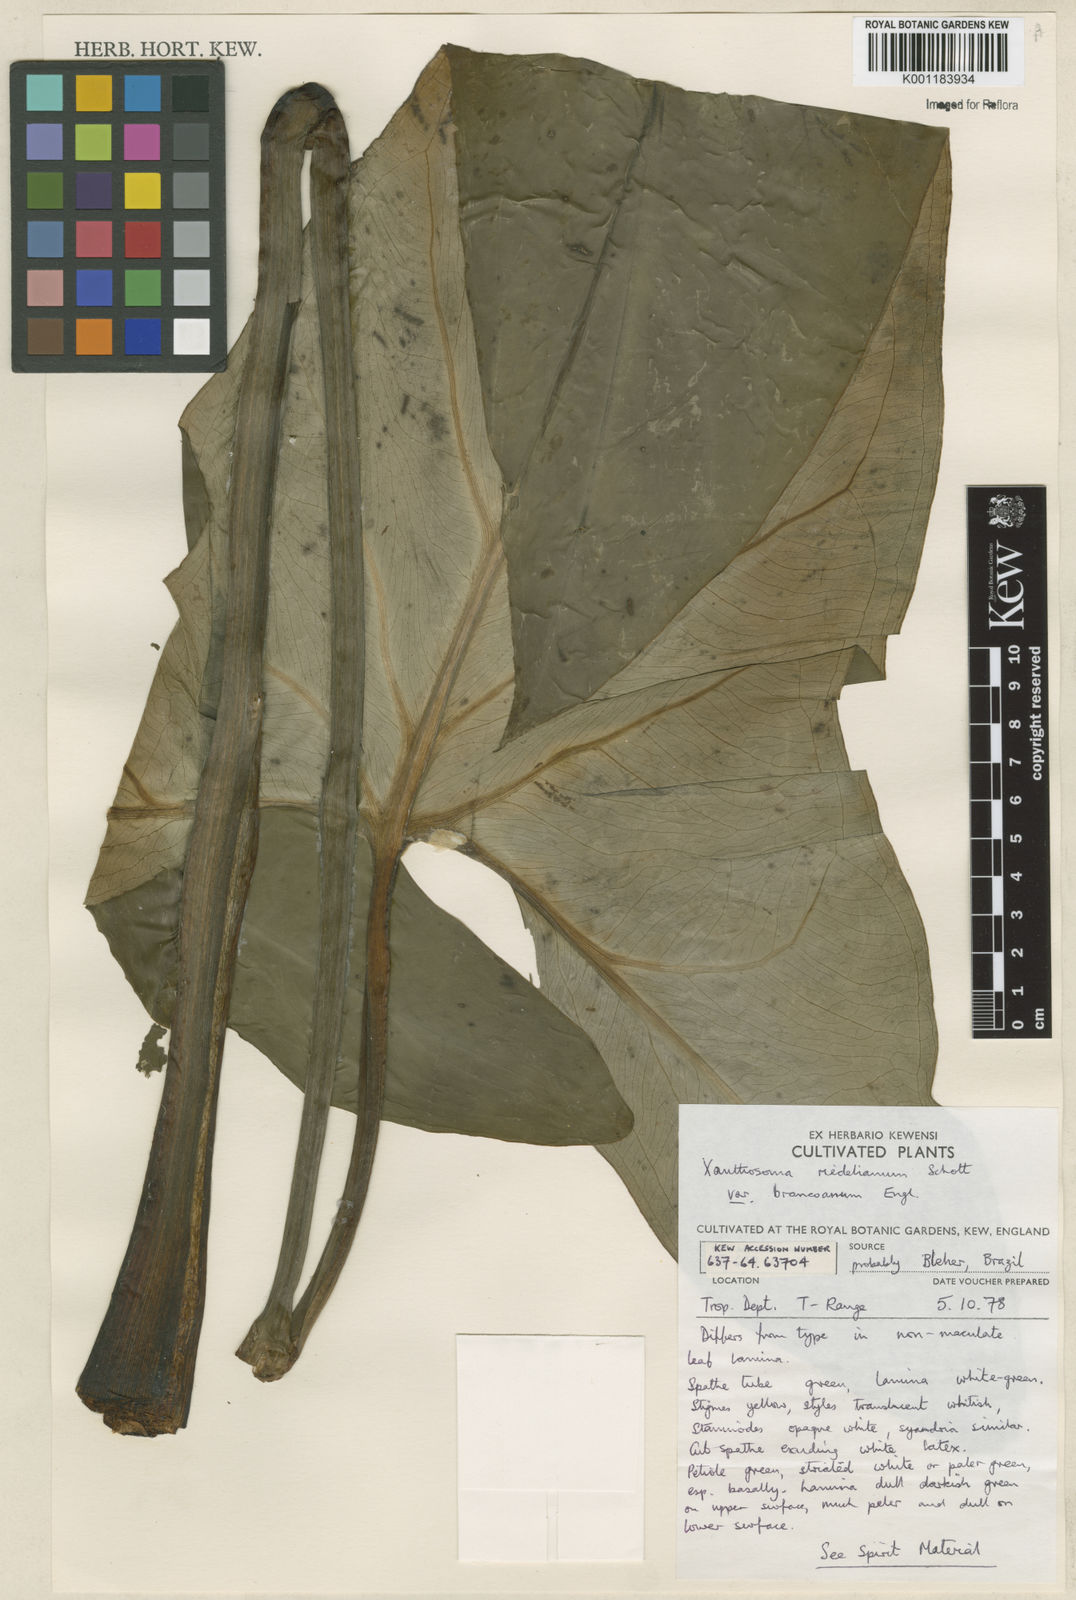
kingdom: Plantae
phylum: Tracheophyta
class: Liliopsida
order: Alismatales
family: Araceae
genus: Xanthosoma
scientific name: Xanthosoma riedelianum
